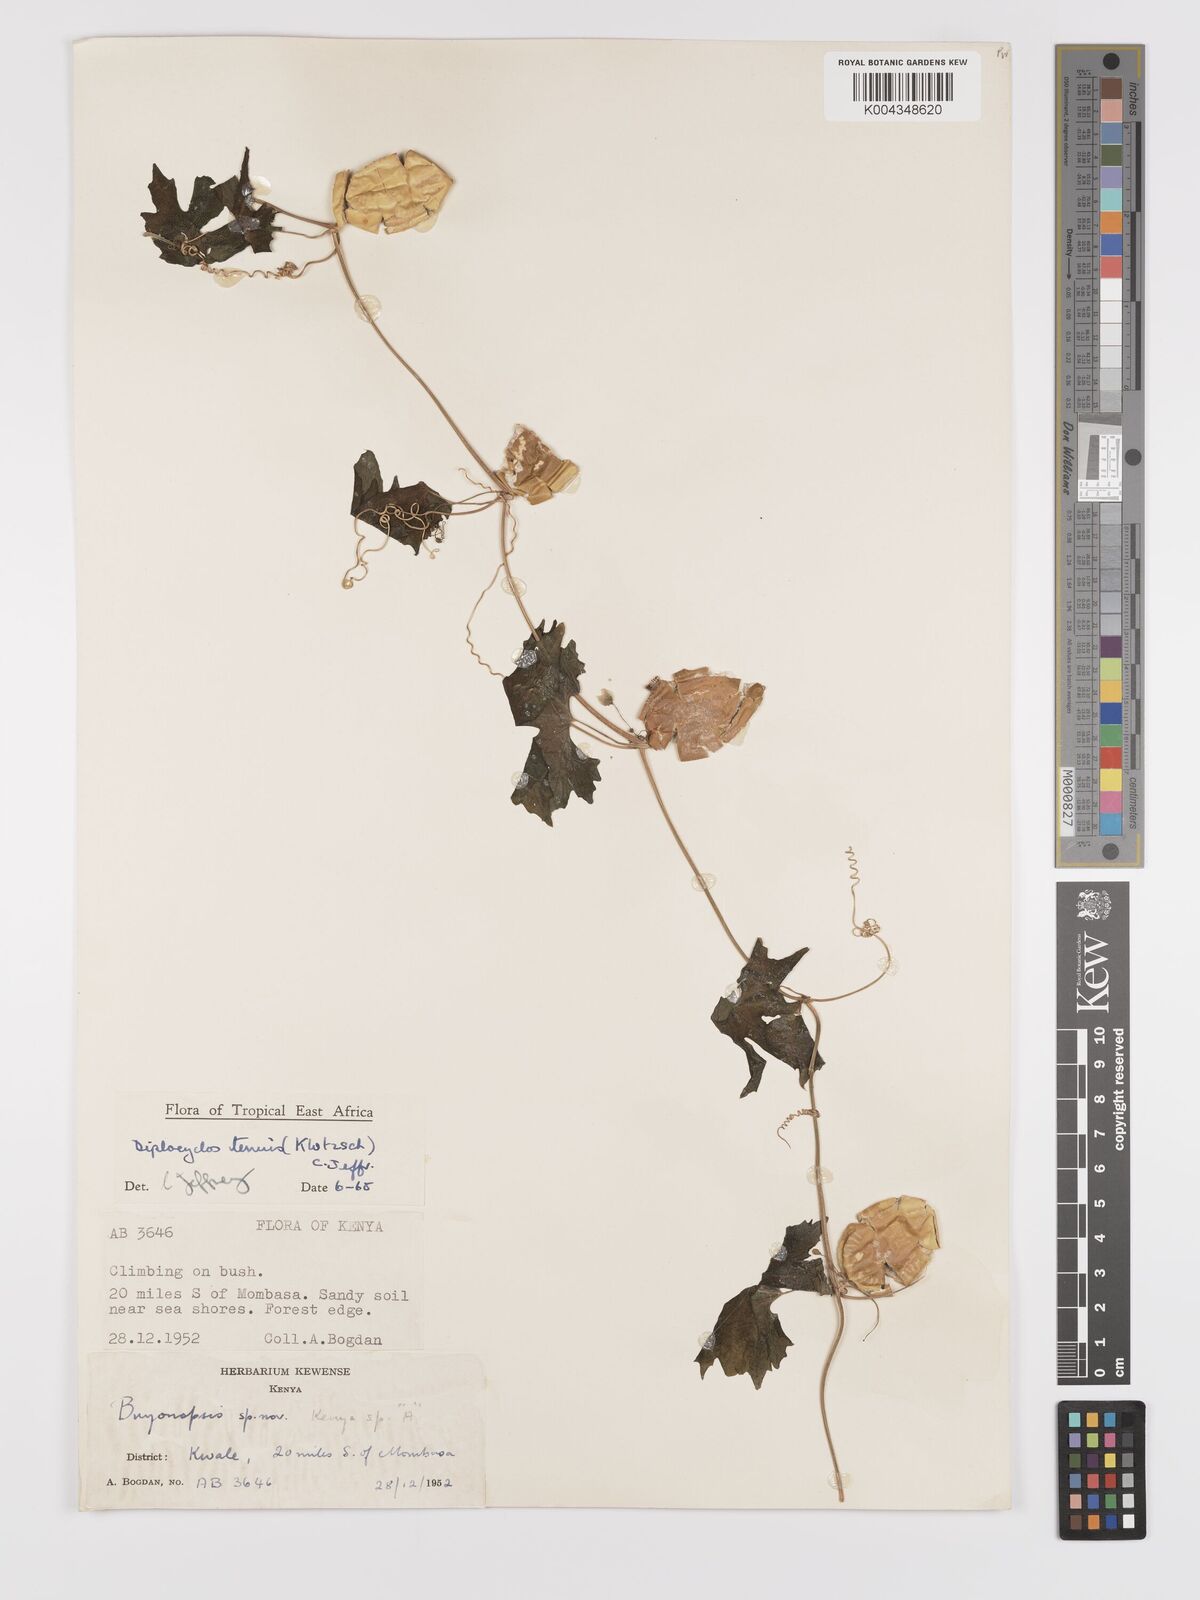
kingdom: Plantae
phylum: Tracheophyta
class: Magnoliopsida
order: Cucurbitales
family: Cucurbitaceae
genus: Diplocyclos
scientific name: Diplocyclos tenuis
